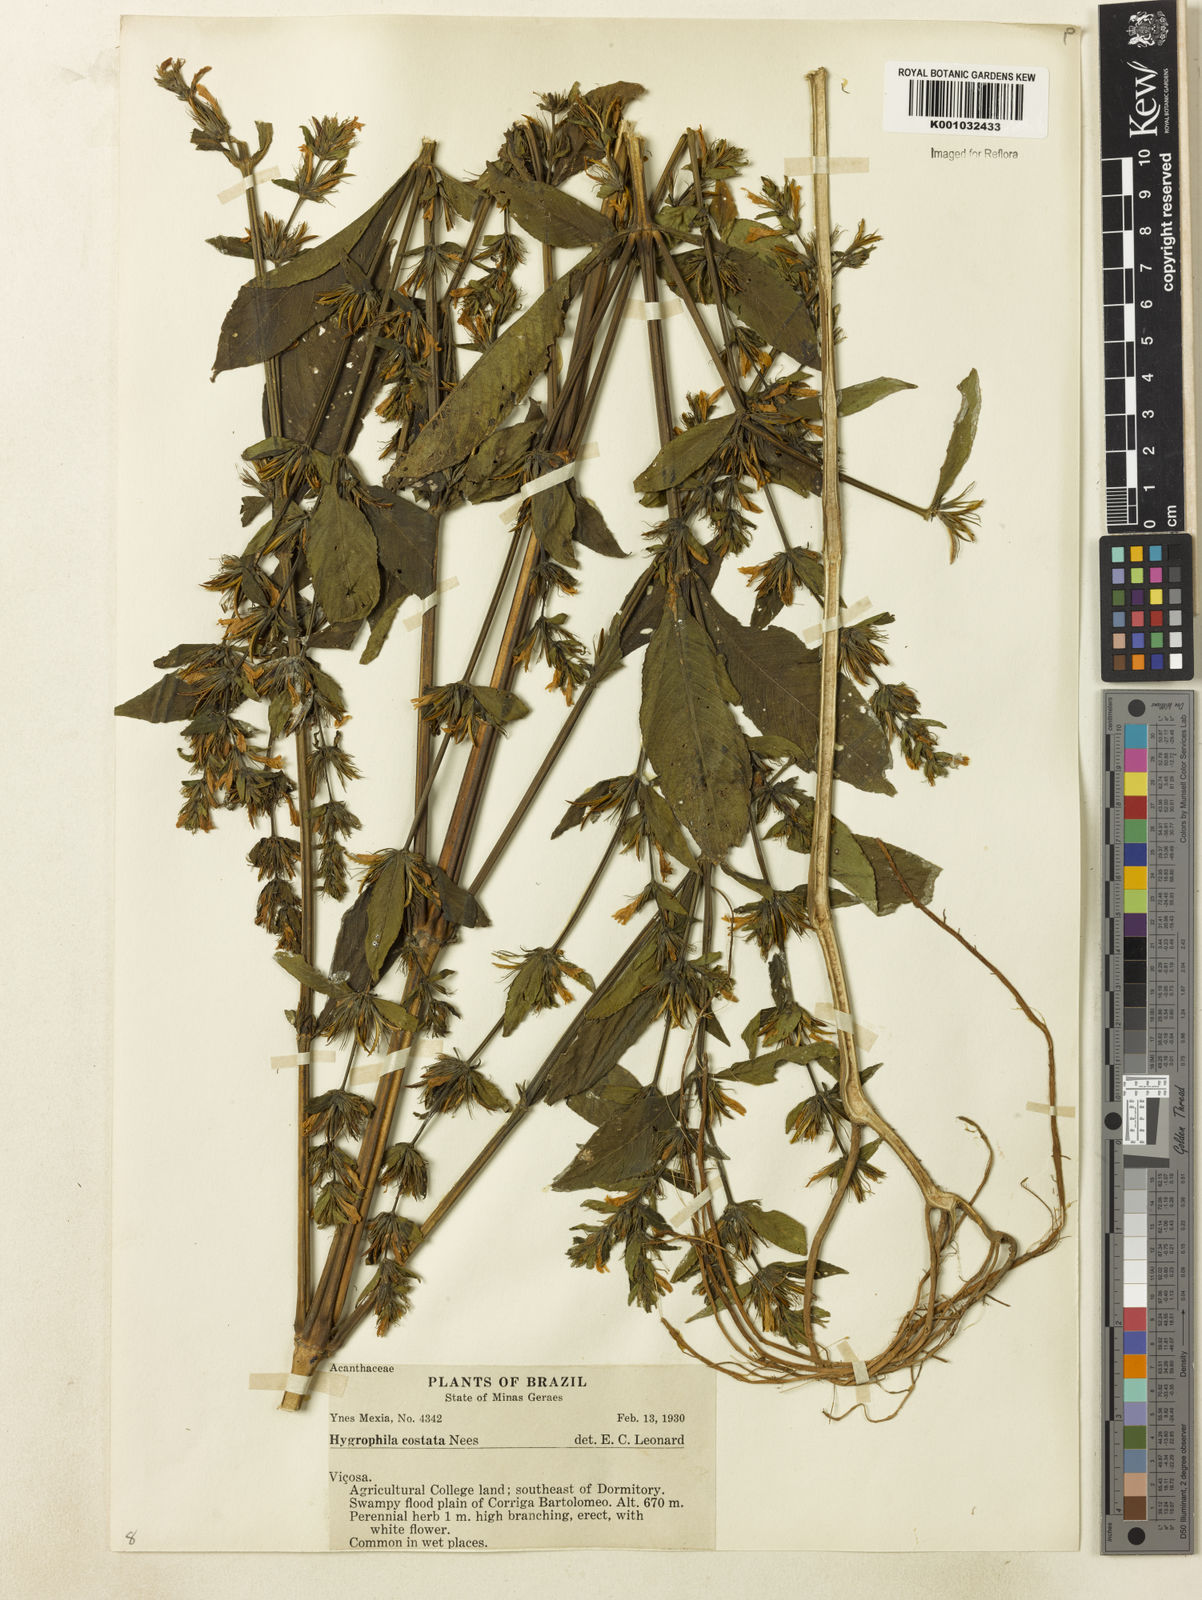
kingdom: Plantae
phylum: Tracheophyta
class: Magnoliopsida
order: Lamiales
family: Acanthaceae
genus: Hygrophila
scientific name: Hygrophila costata
